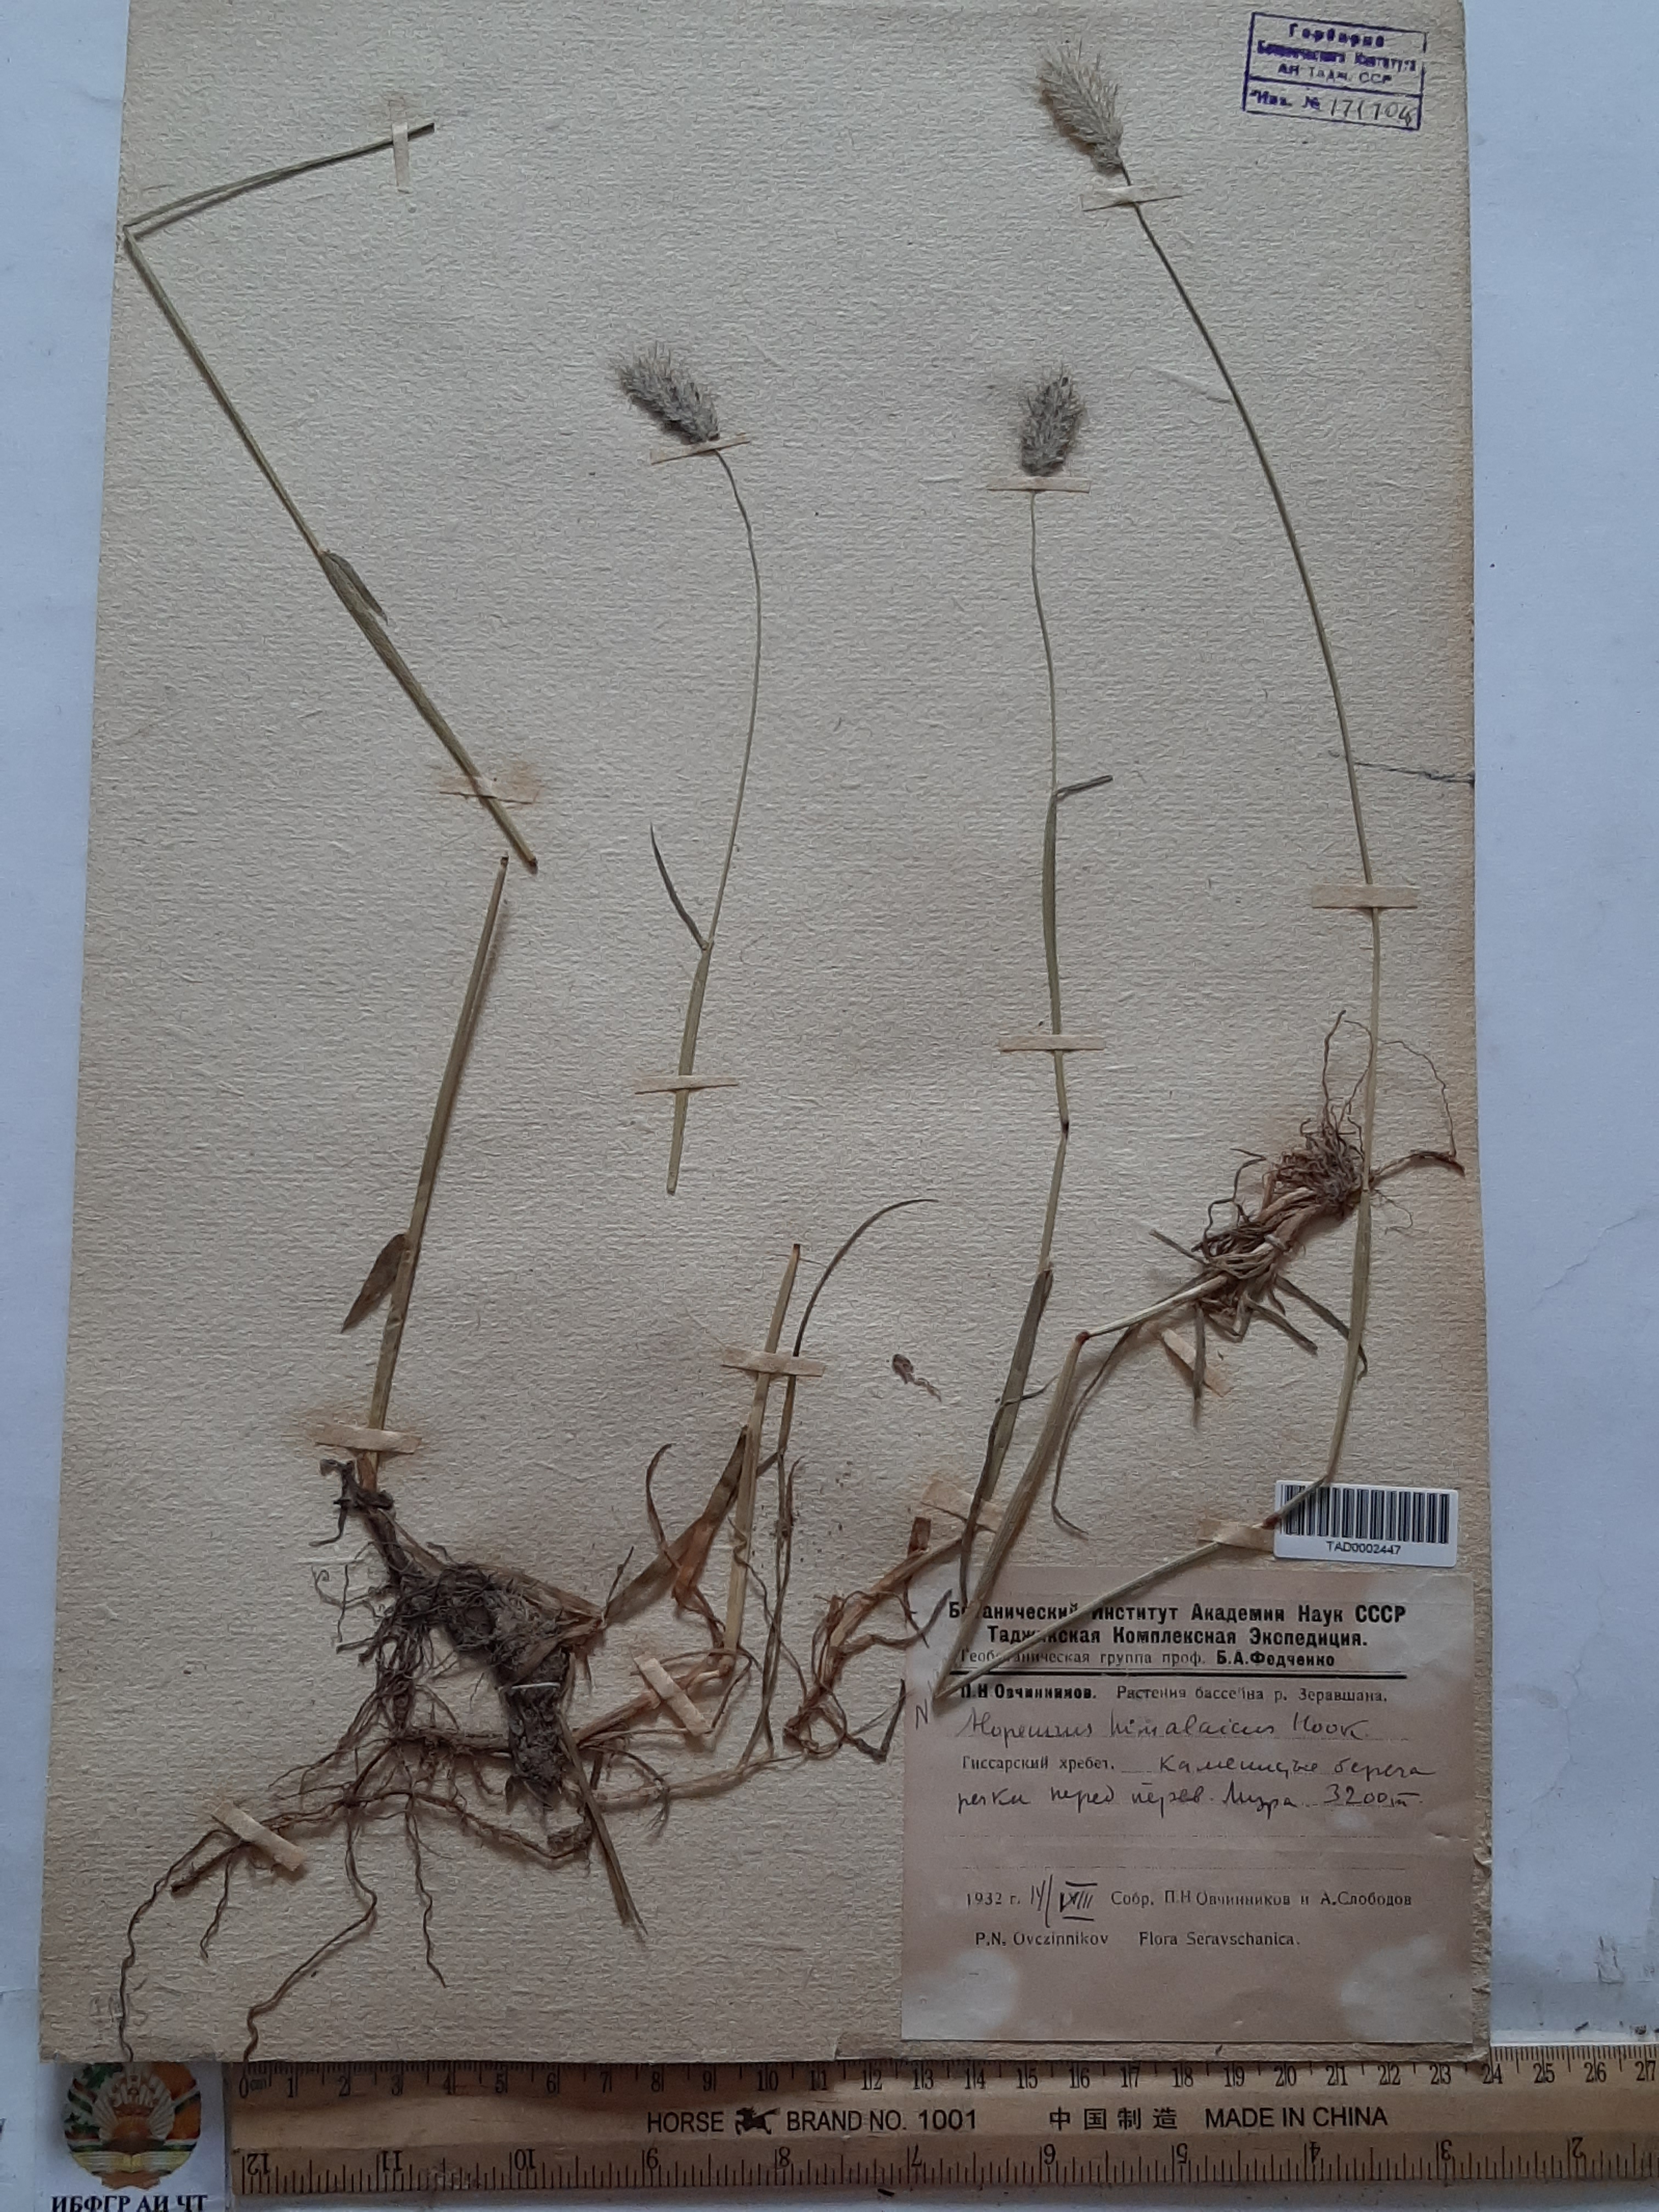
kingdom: Plantae
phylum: Tracheophyta
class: Liliopsida
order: Poales
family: Poaceae
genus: Alopecurus
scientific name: Alopecurus himalaicus
